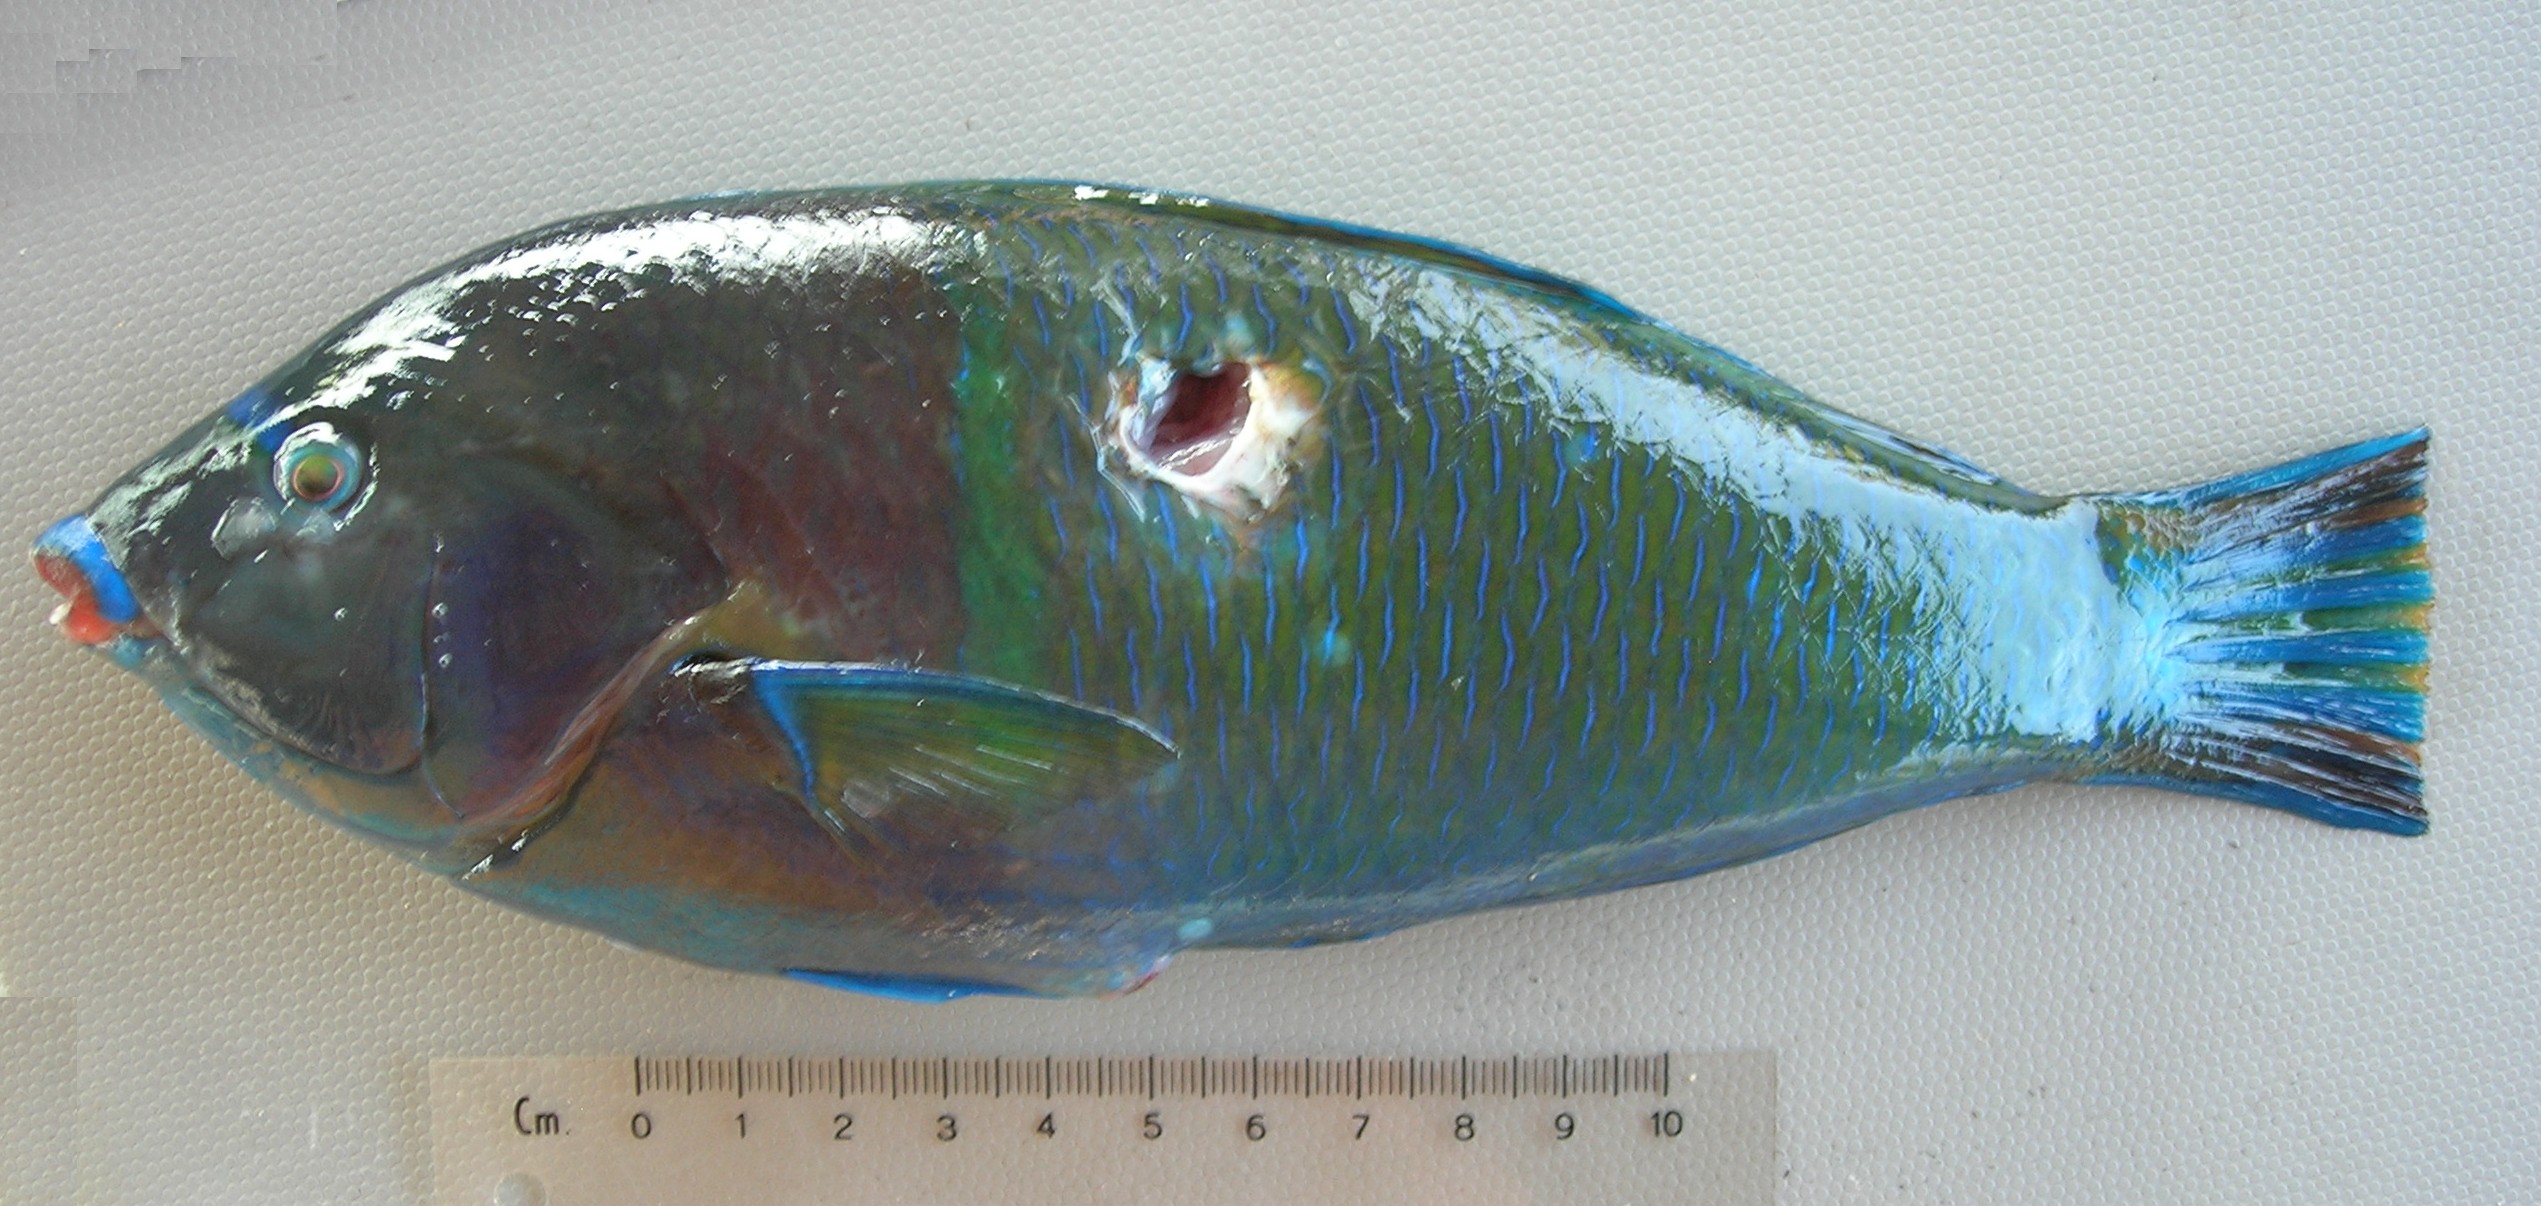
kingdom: Animalia
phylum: Chordata
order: Perciformes
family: Labridae
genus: Anampses
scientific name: Anampses caeruleopunctatus
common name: Bluespotted wrasse
